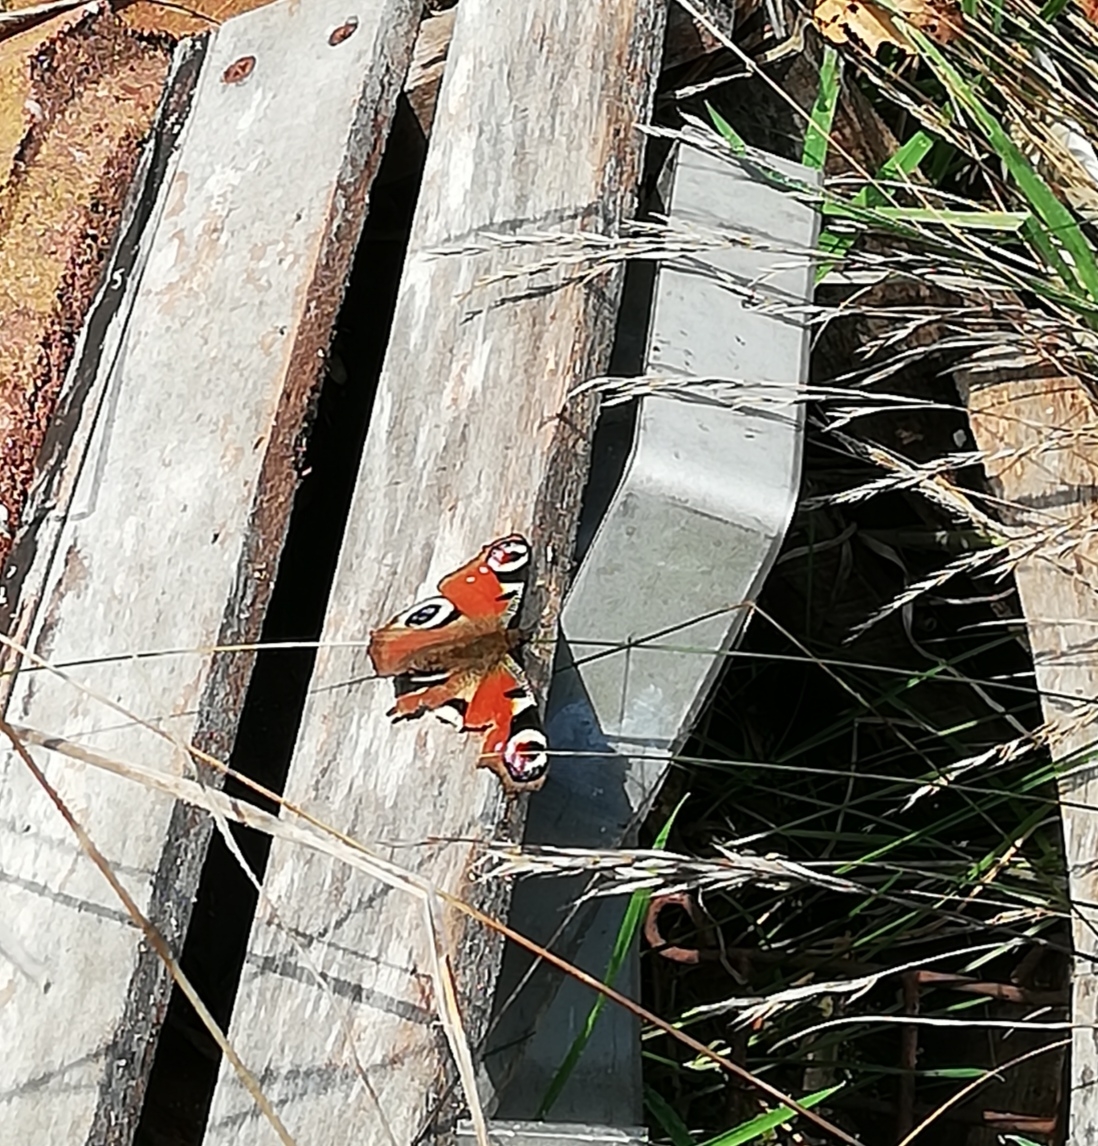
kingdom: Animalia
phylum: Arthropoda
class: Insecta
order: Lepidoptera
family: Nymphalidae
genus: Aglais
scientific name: Aglais io
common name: Dagpåfugleøje
